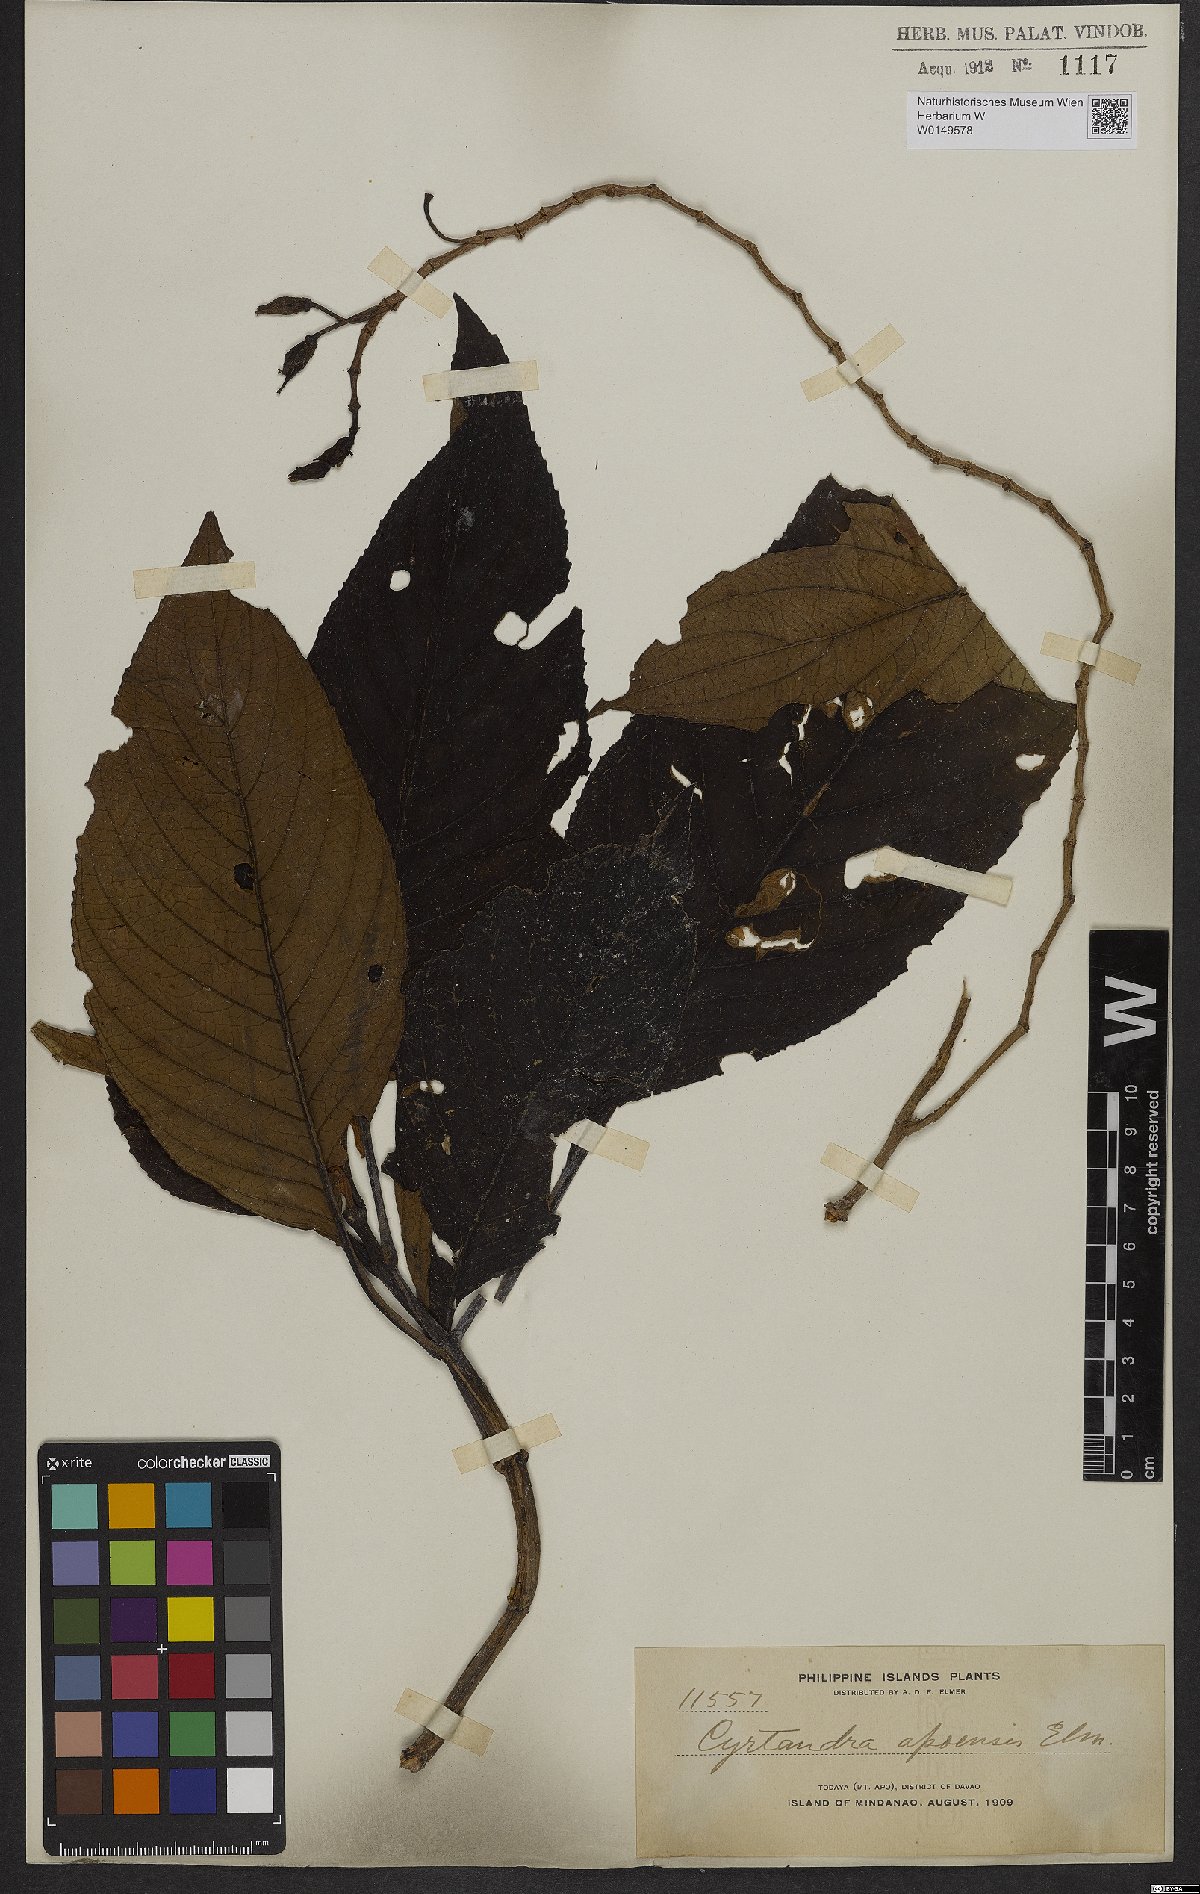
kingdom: Plantae
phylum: Tracheophyta
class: Magnoliopsida
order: Lamiales
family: Gesneriaceae
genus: Cyrtandra
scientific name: Cyrtandra apoensis
